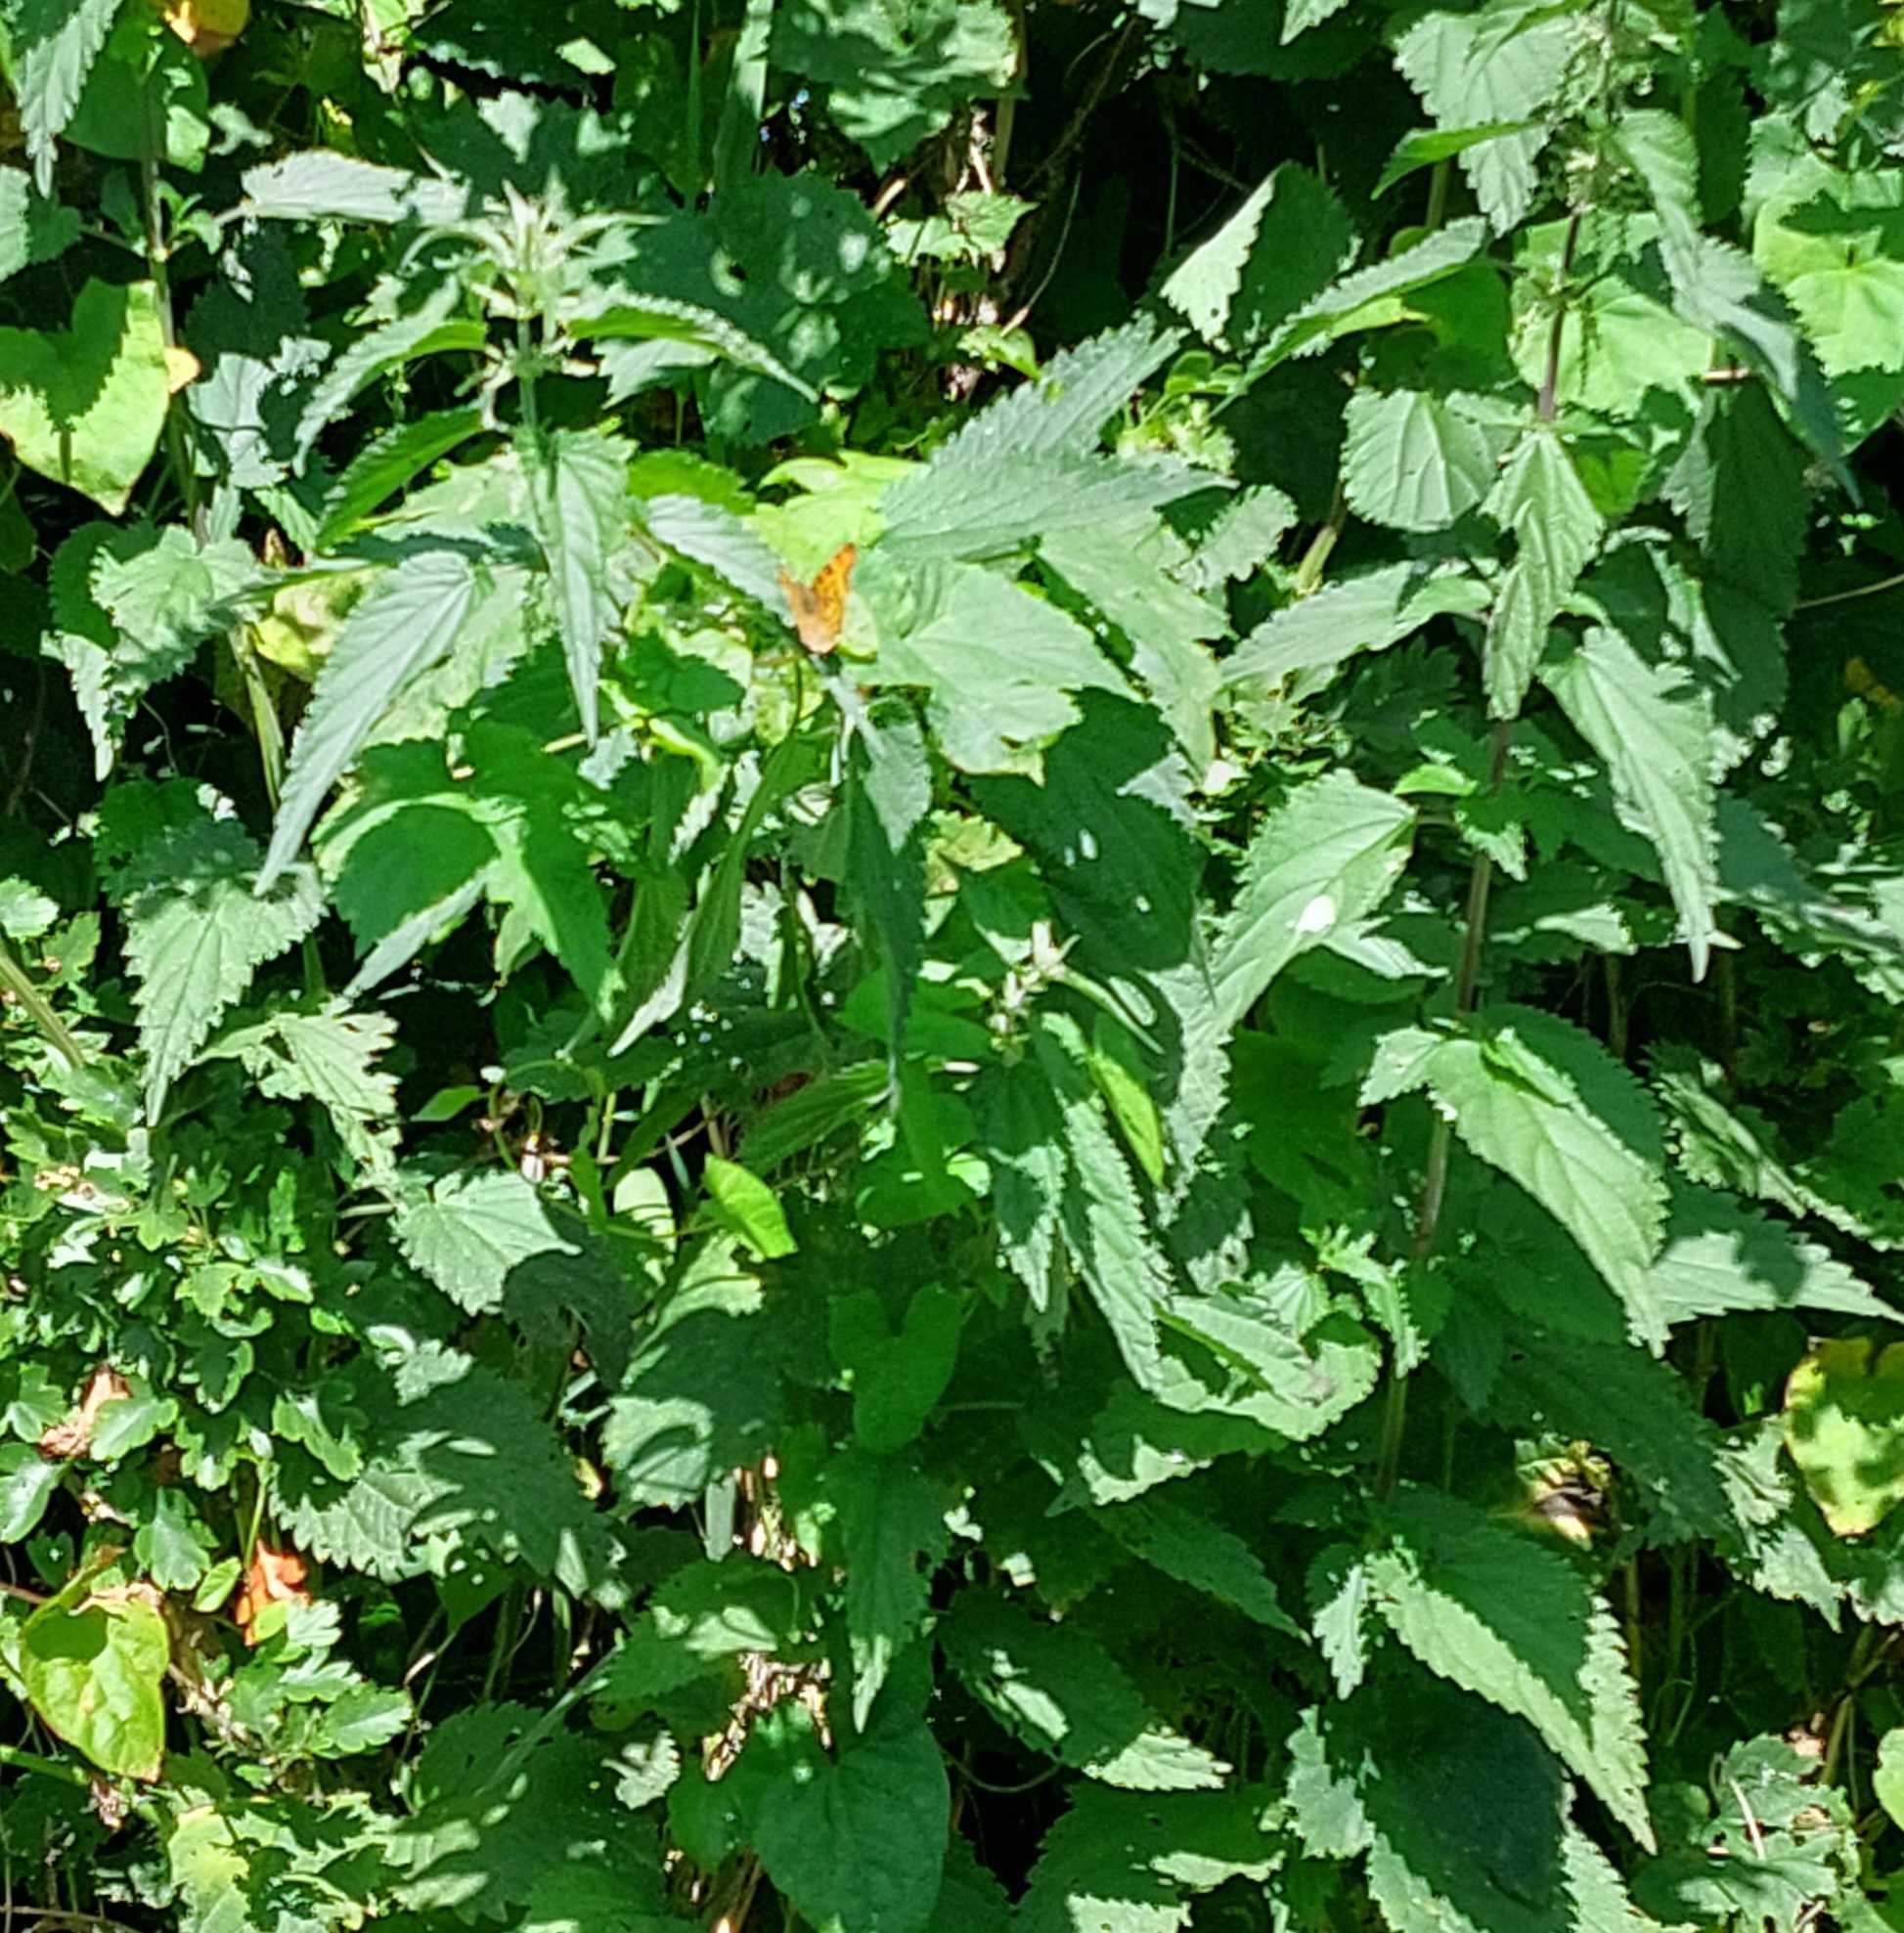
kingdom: Animalia
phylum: Arthropoda
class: Insecta
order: Lepidoptera
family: Nymphalidae
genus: Polygonia
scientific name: Polygonia c-album
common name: Det hvide C
